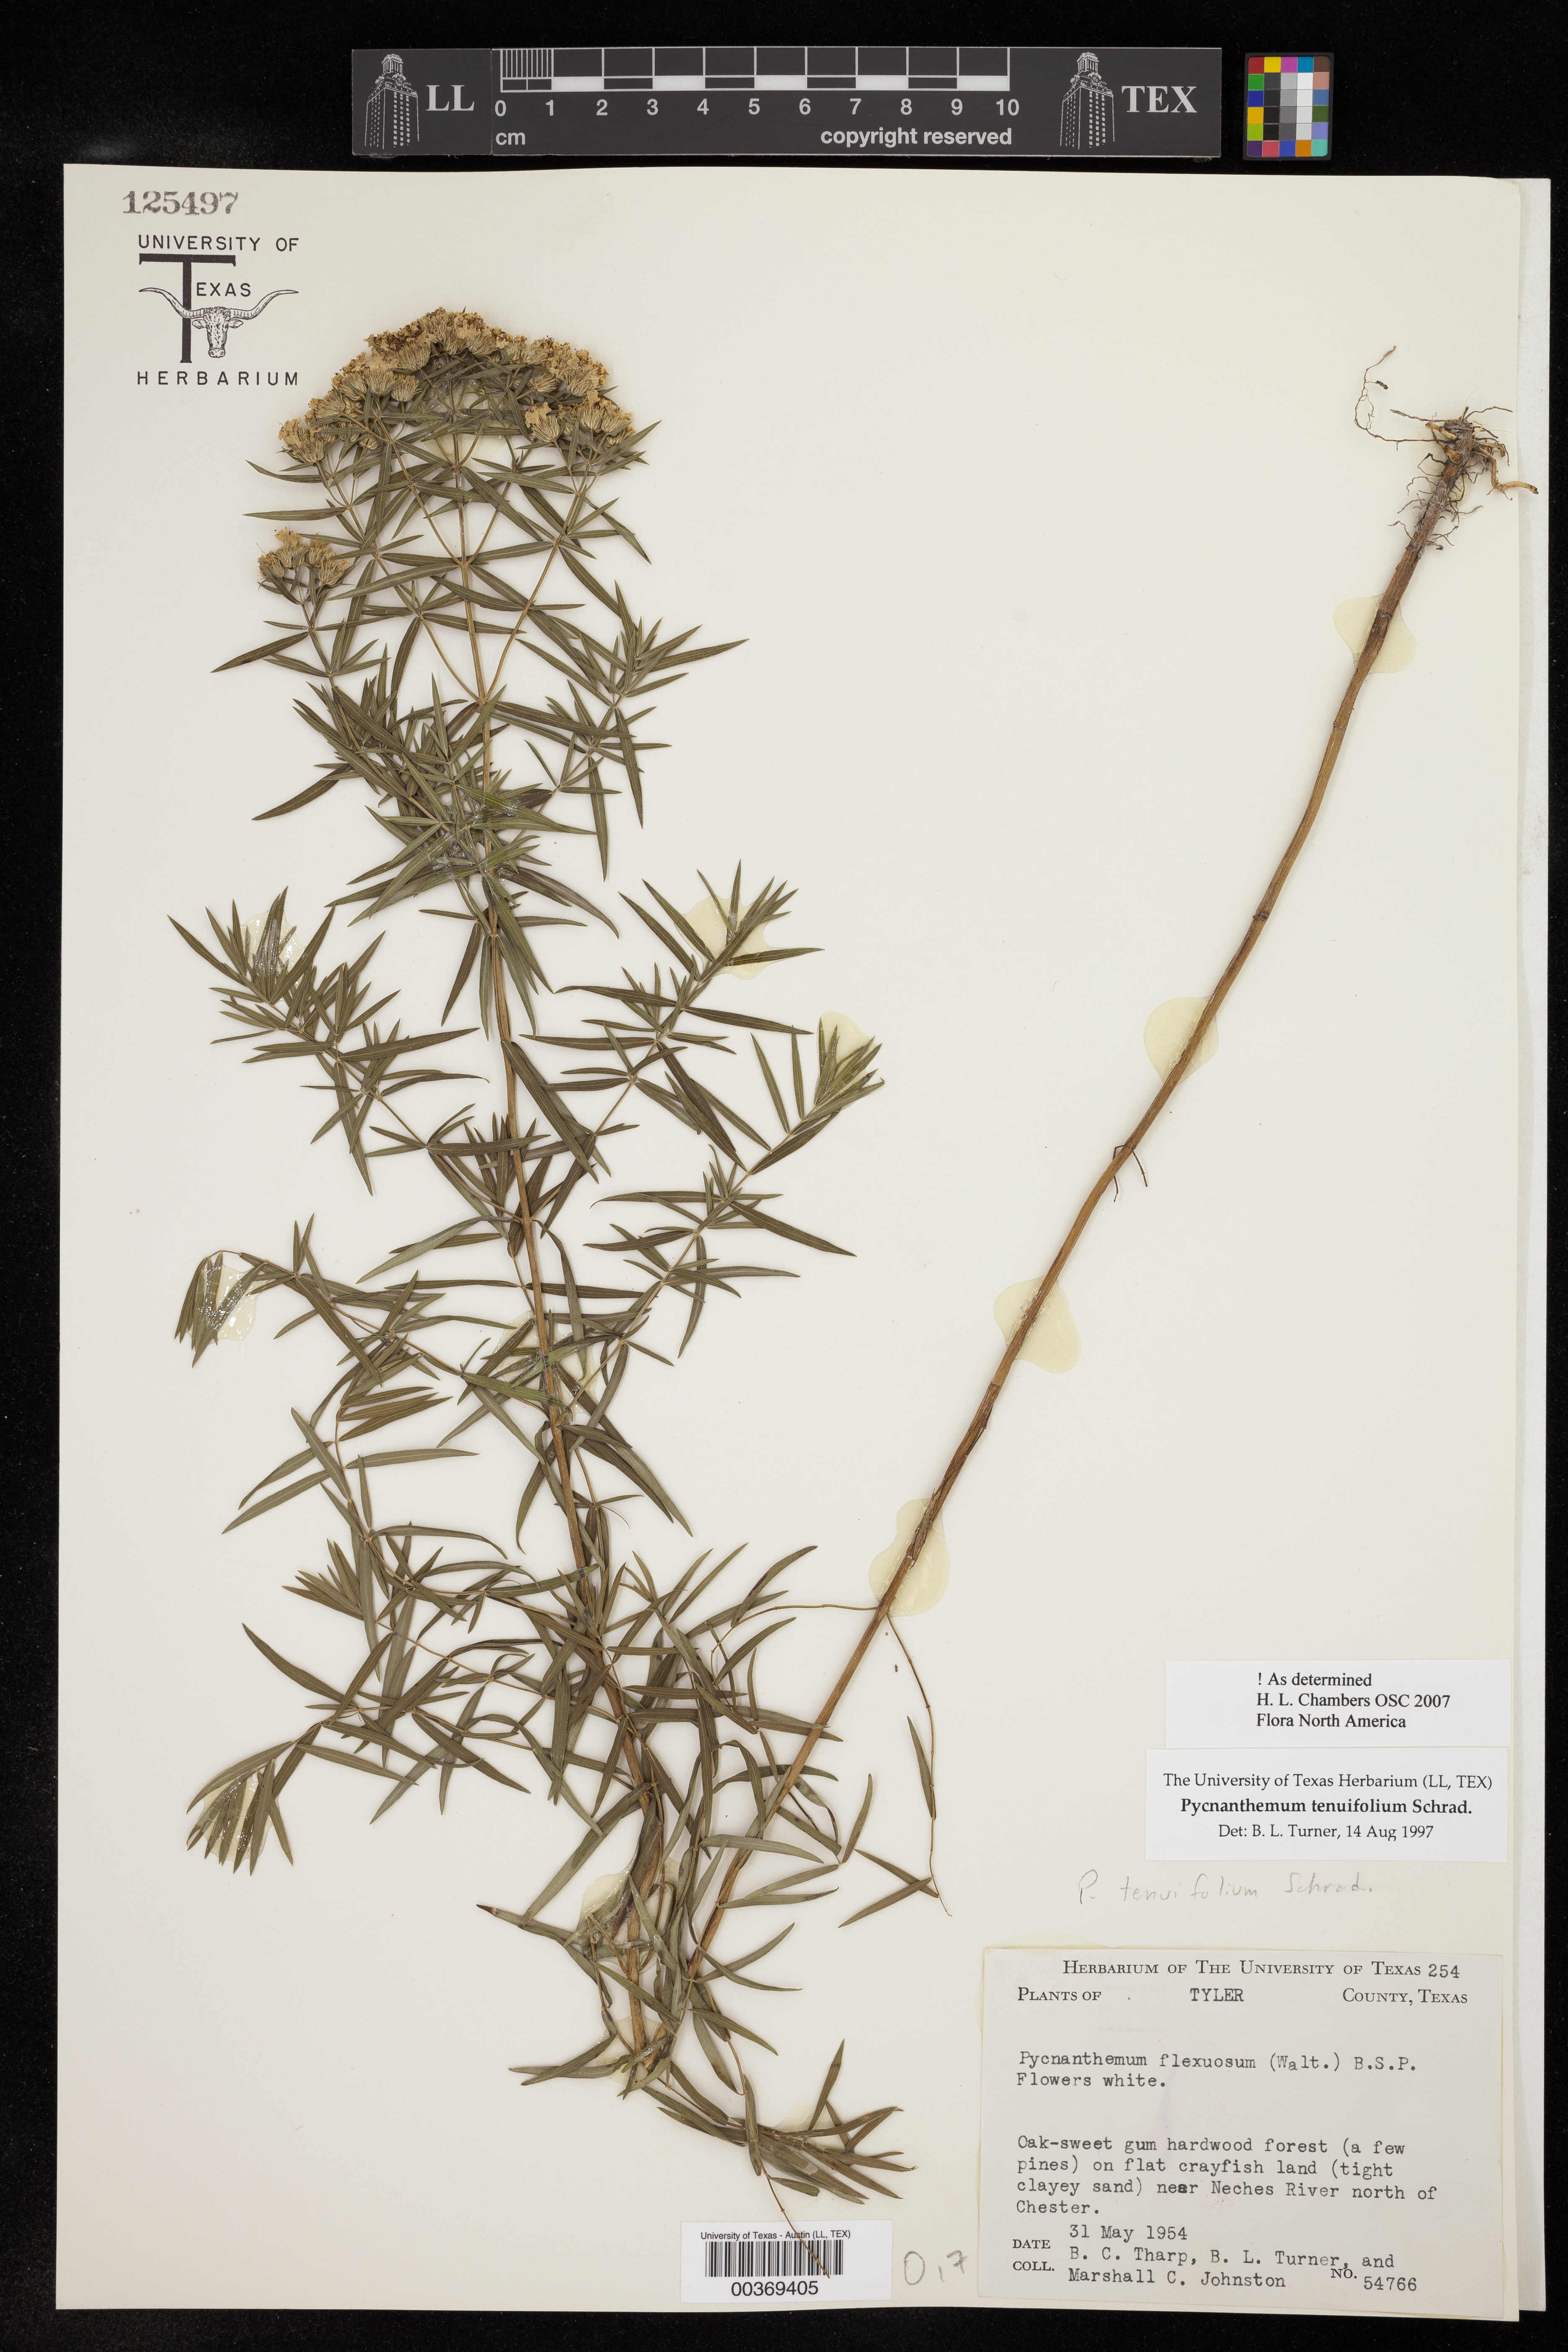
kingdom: Plantae
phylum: Tracheophyta
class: Magnoliopsida
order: Lamiales
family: Lamiaceae
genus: Pycnanthemum
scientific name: Pycnanthemum tenuifolium
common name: Narrow-leaf mountain-mint
